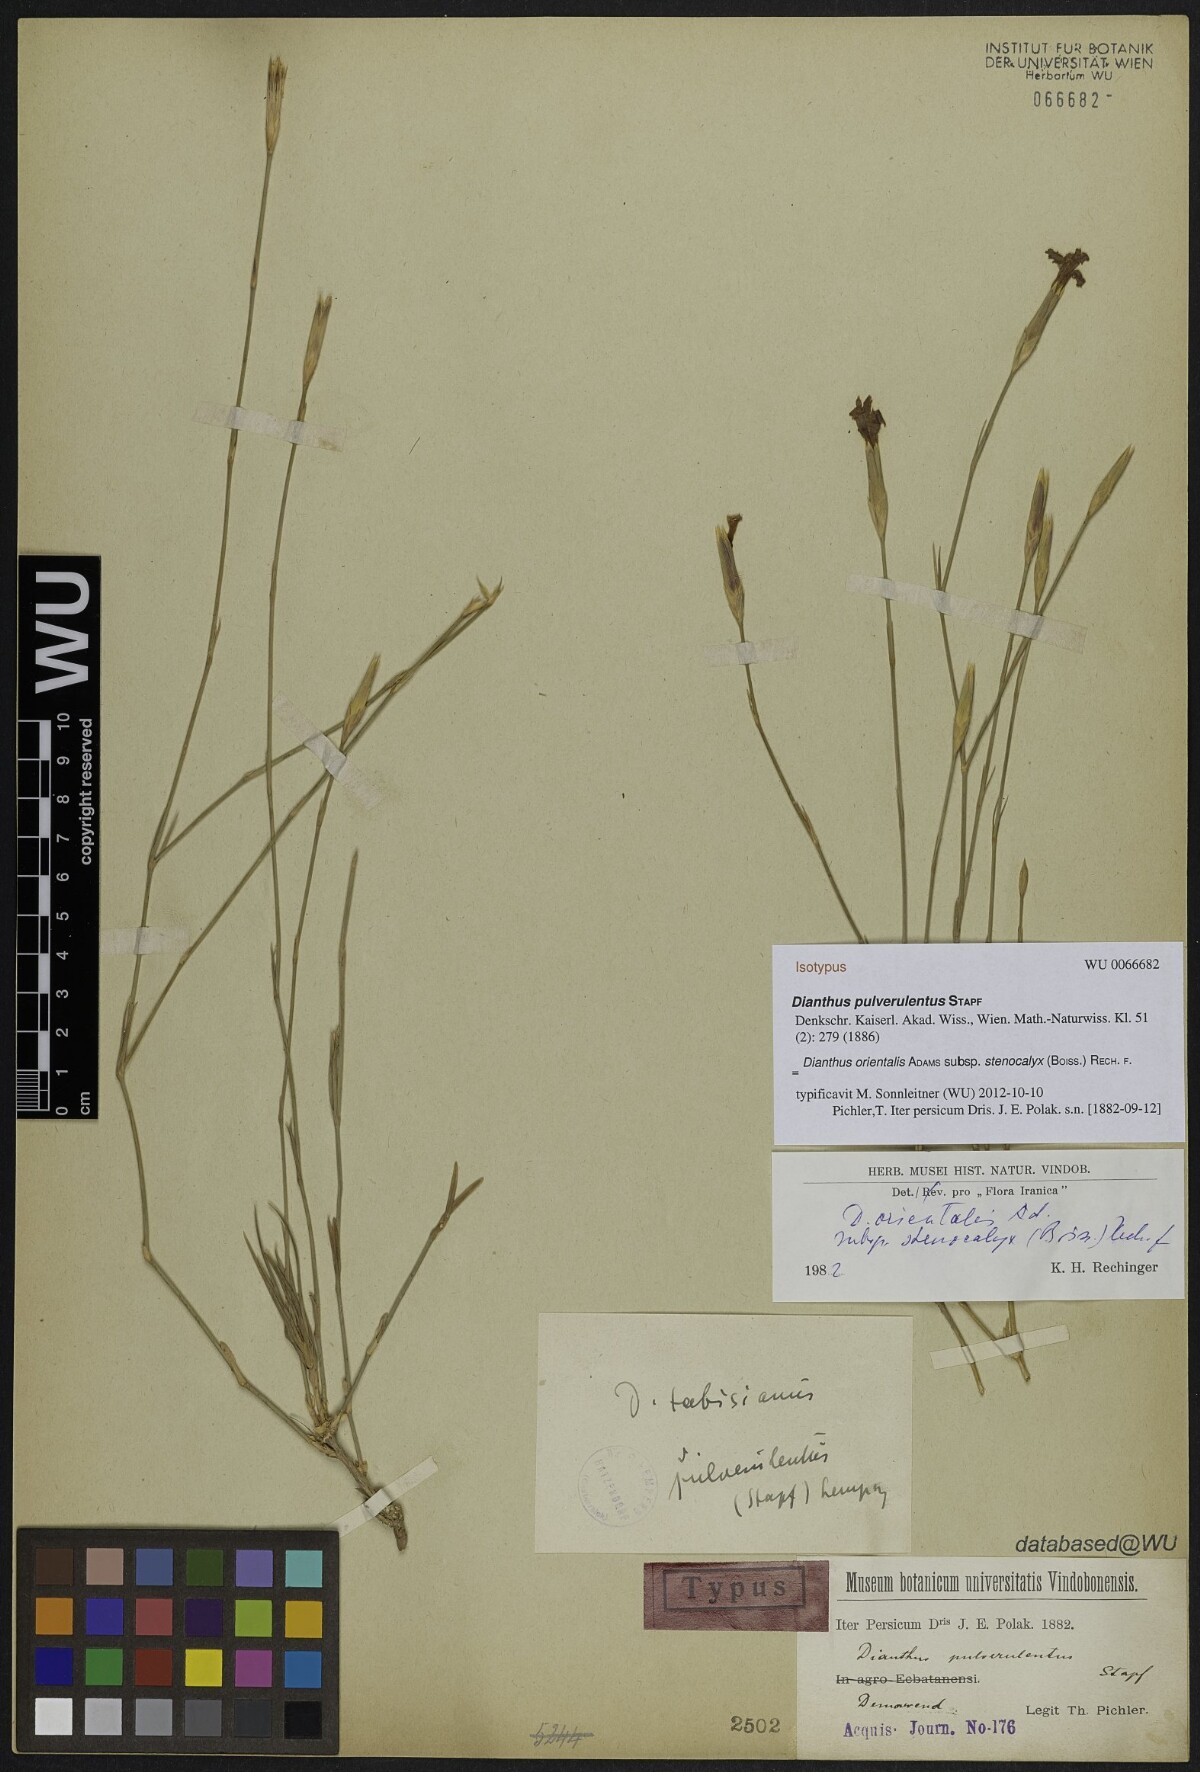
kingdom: Plantae
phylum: Tracheophyta
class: Magnoliopsida
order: Caryophyllales
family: Caryophyllaceae
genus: Dianthus
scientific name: Dianthus orientalis
